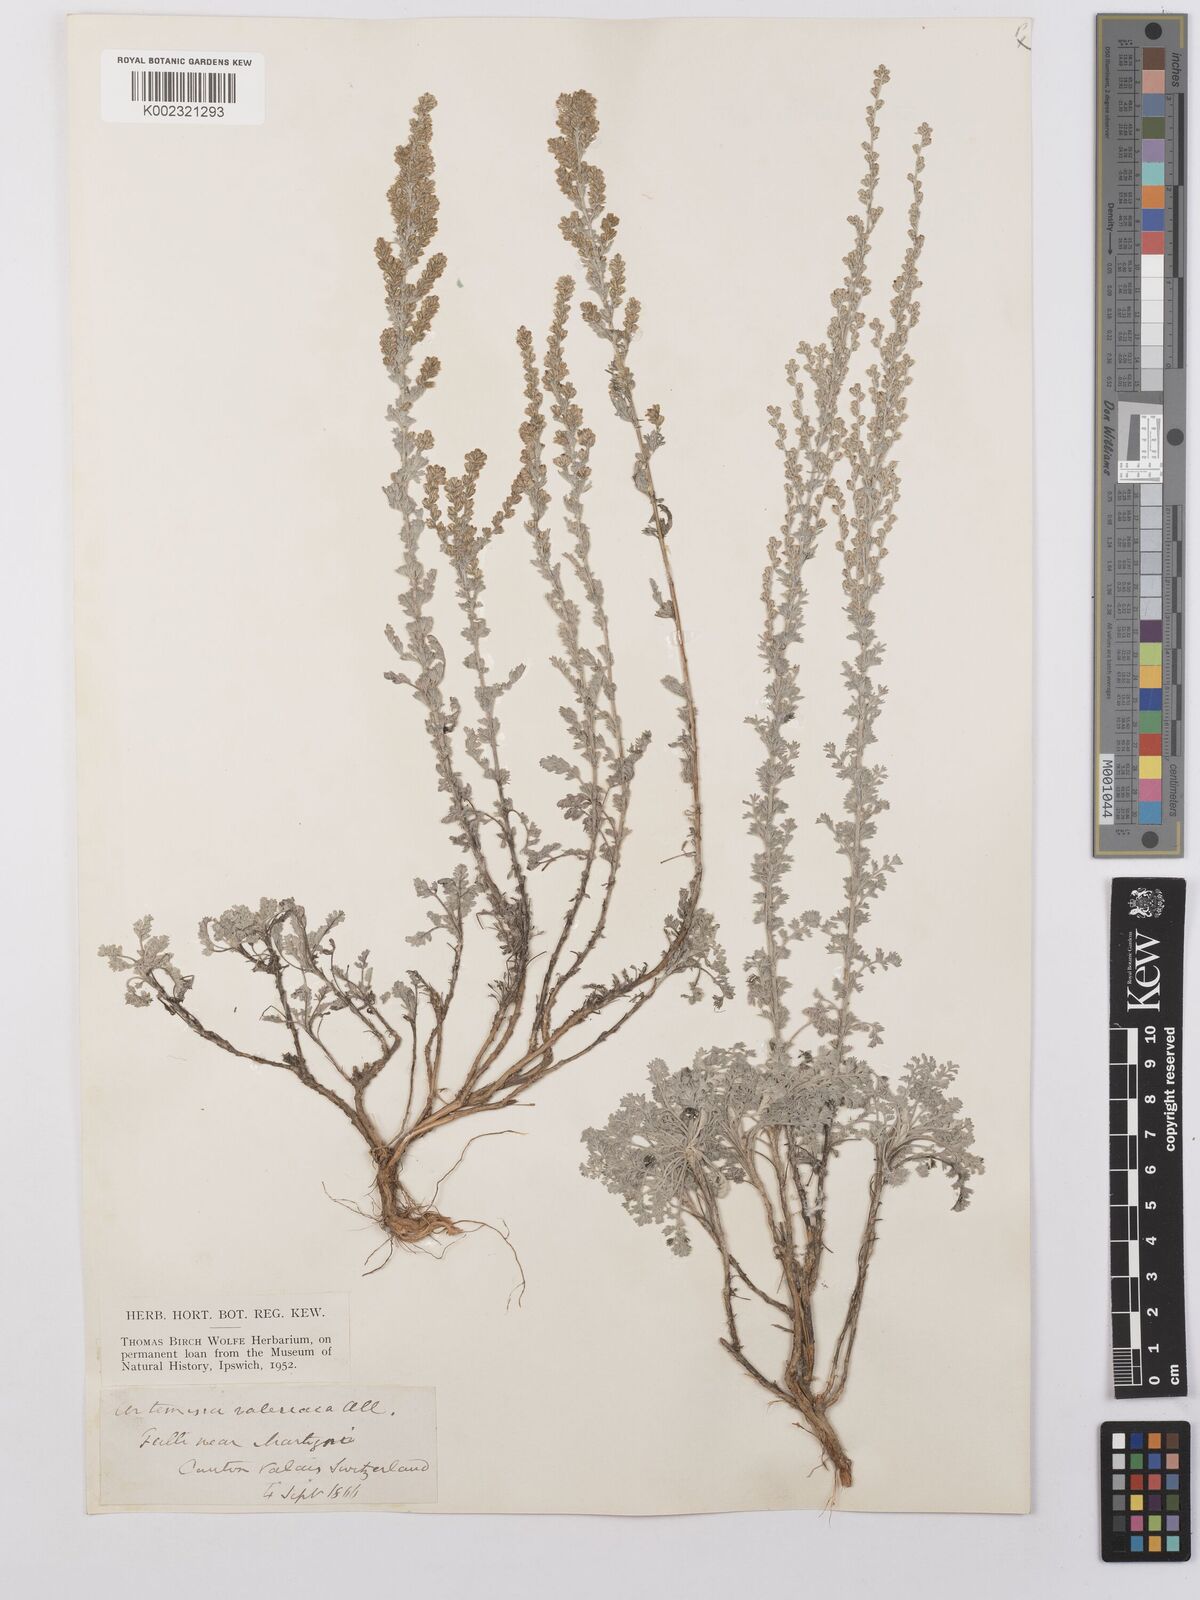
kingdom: Plantae
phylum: Tracheophyta
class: Magnoliopsida
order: Asterales
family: Asteraceae
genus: Artemisia
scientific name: Artemisia vallesiaca
